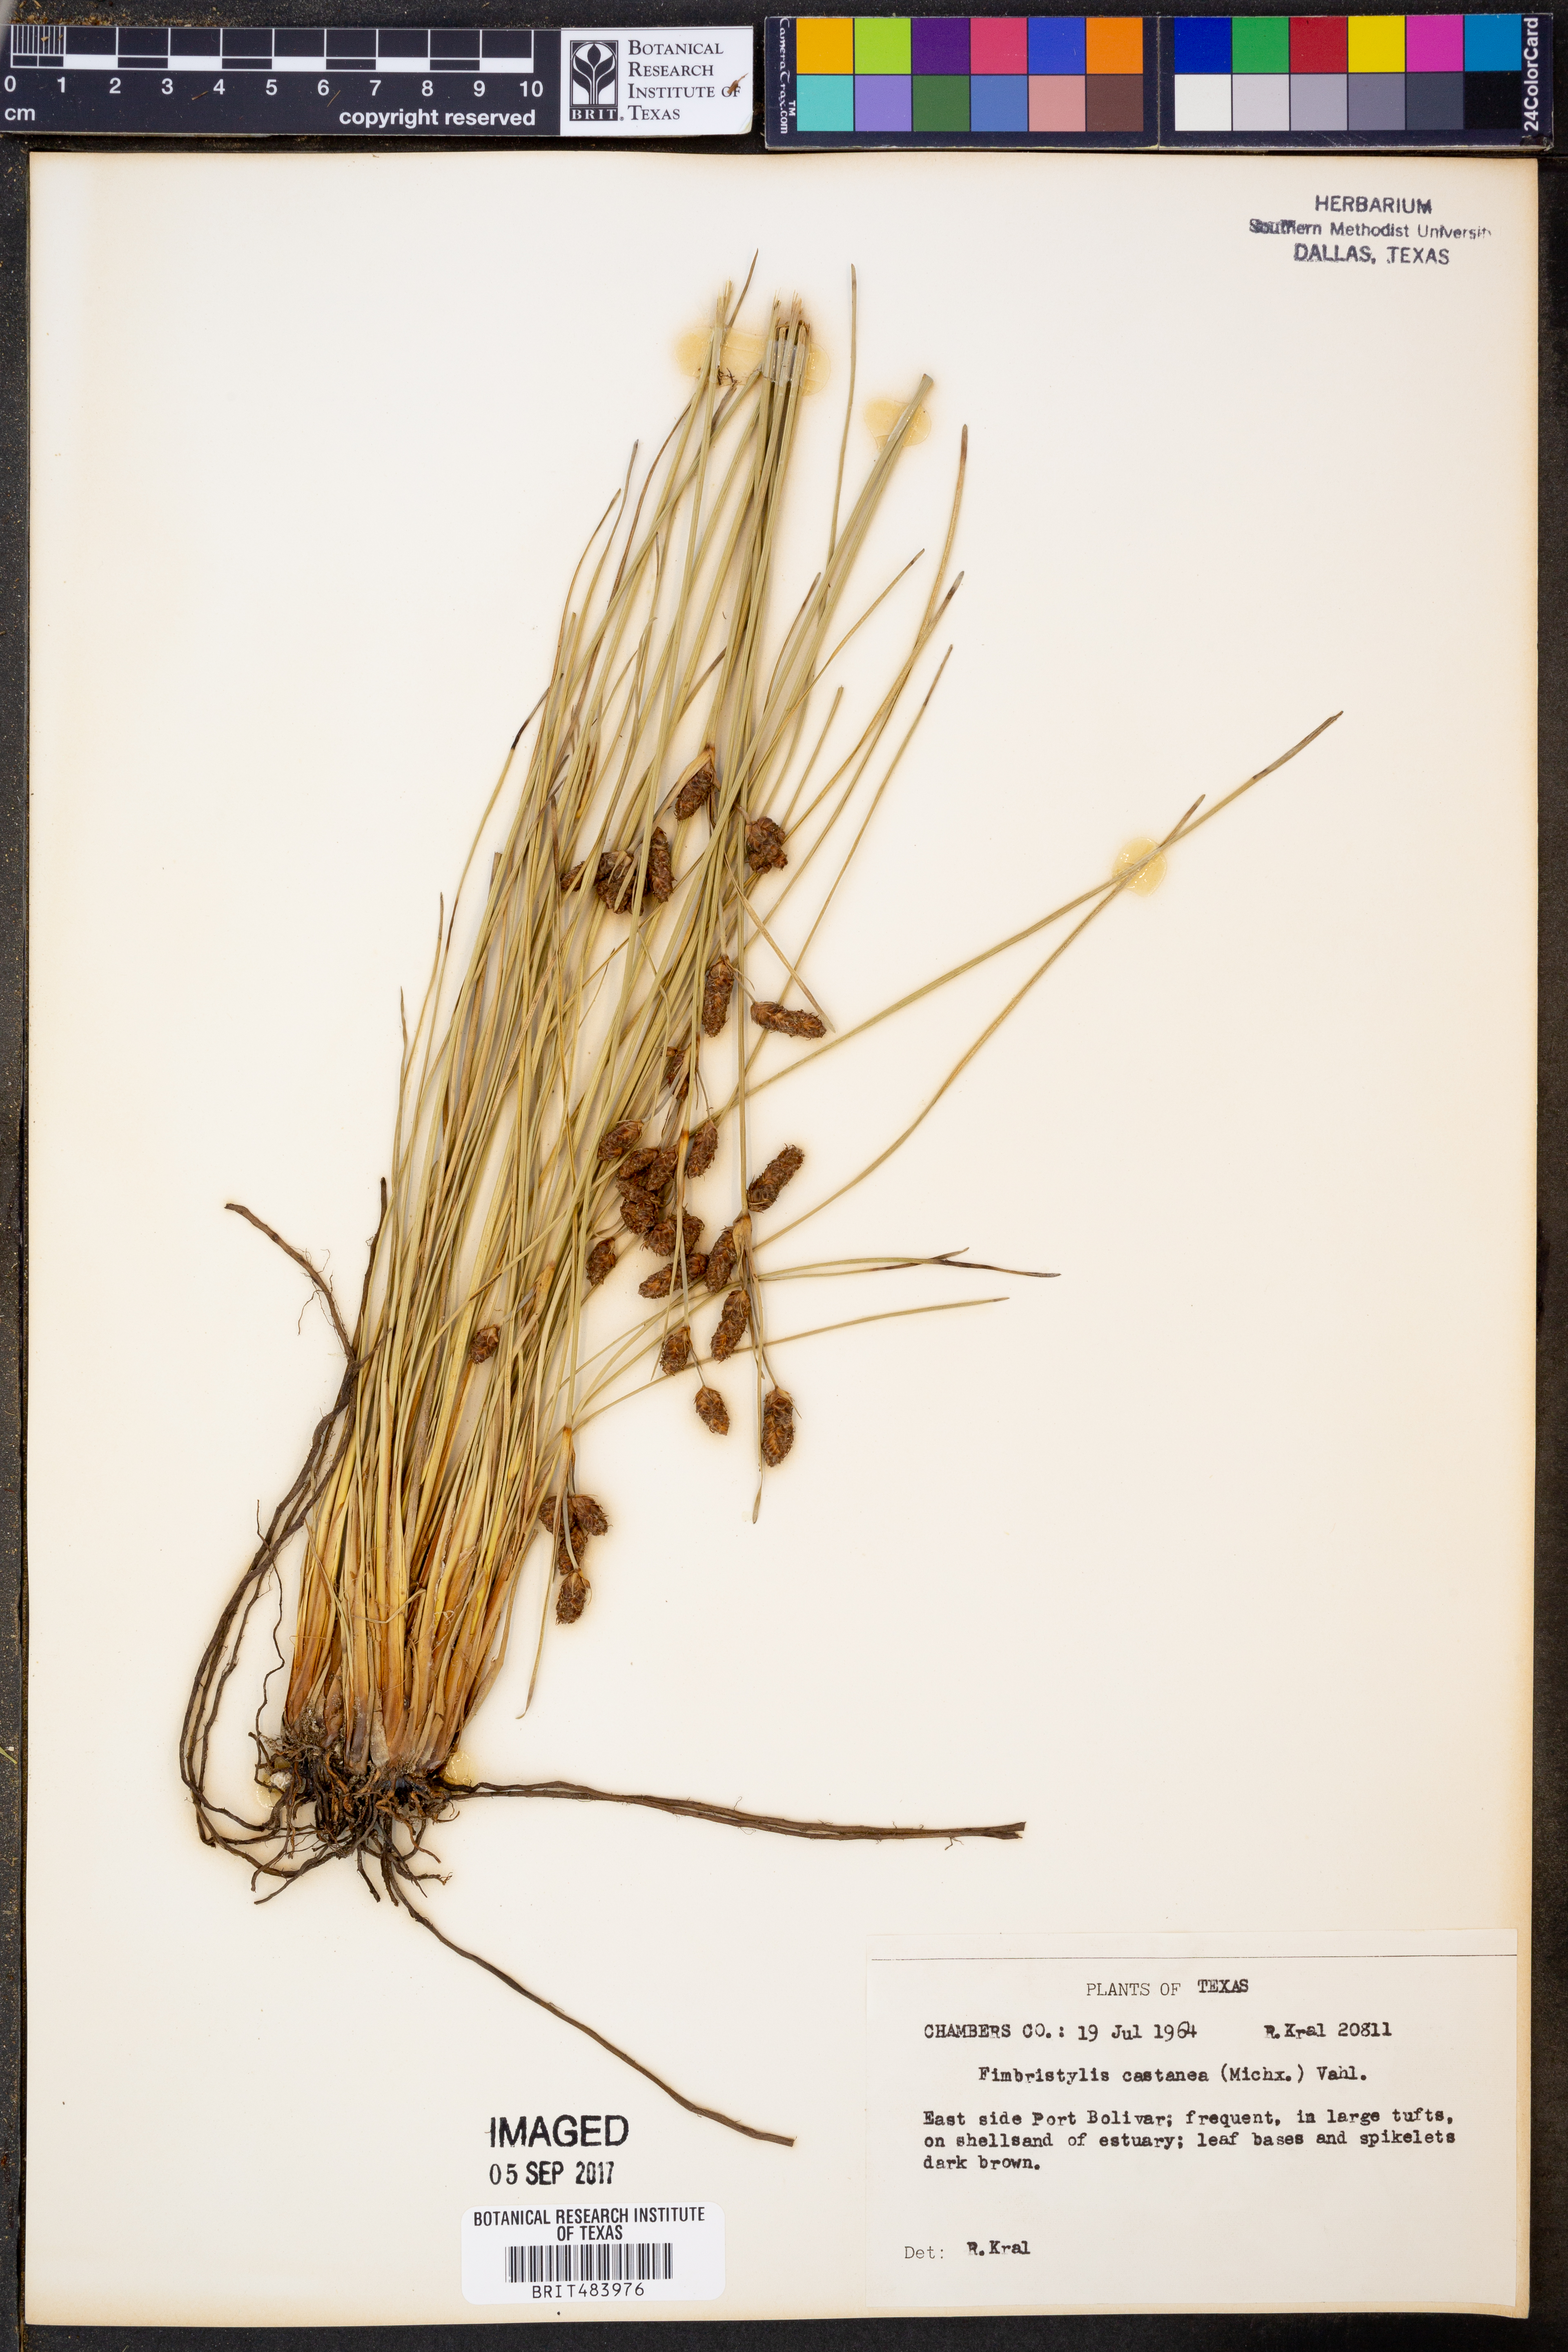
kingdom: Plantae
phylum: Tracheophyta
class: Liliopsida
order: Poales
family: Cyperaceae
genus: Fimbristylis
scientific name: Fimbristylis spadicea
